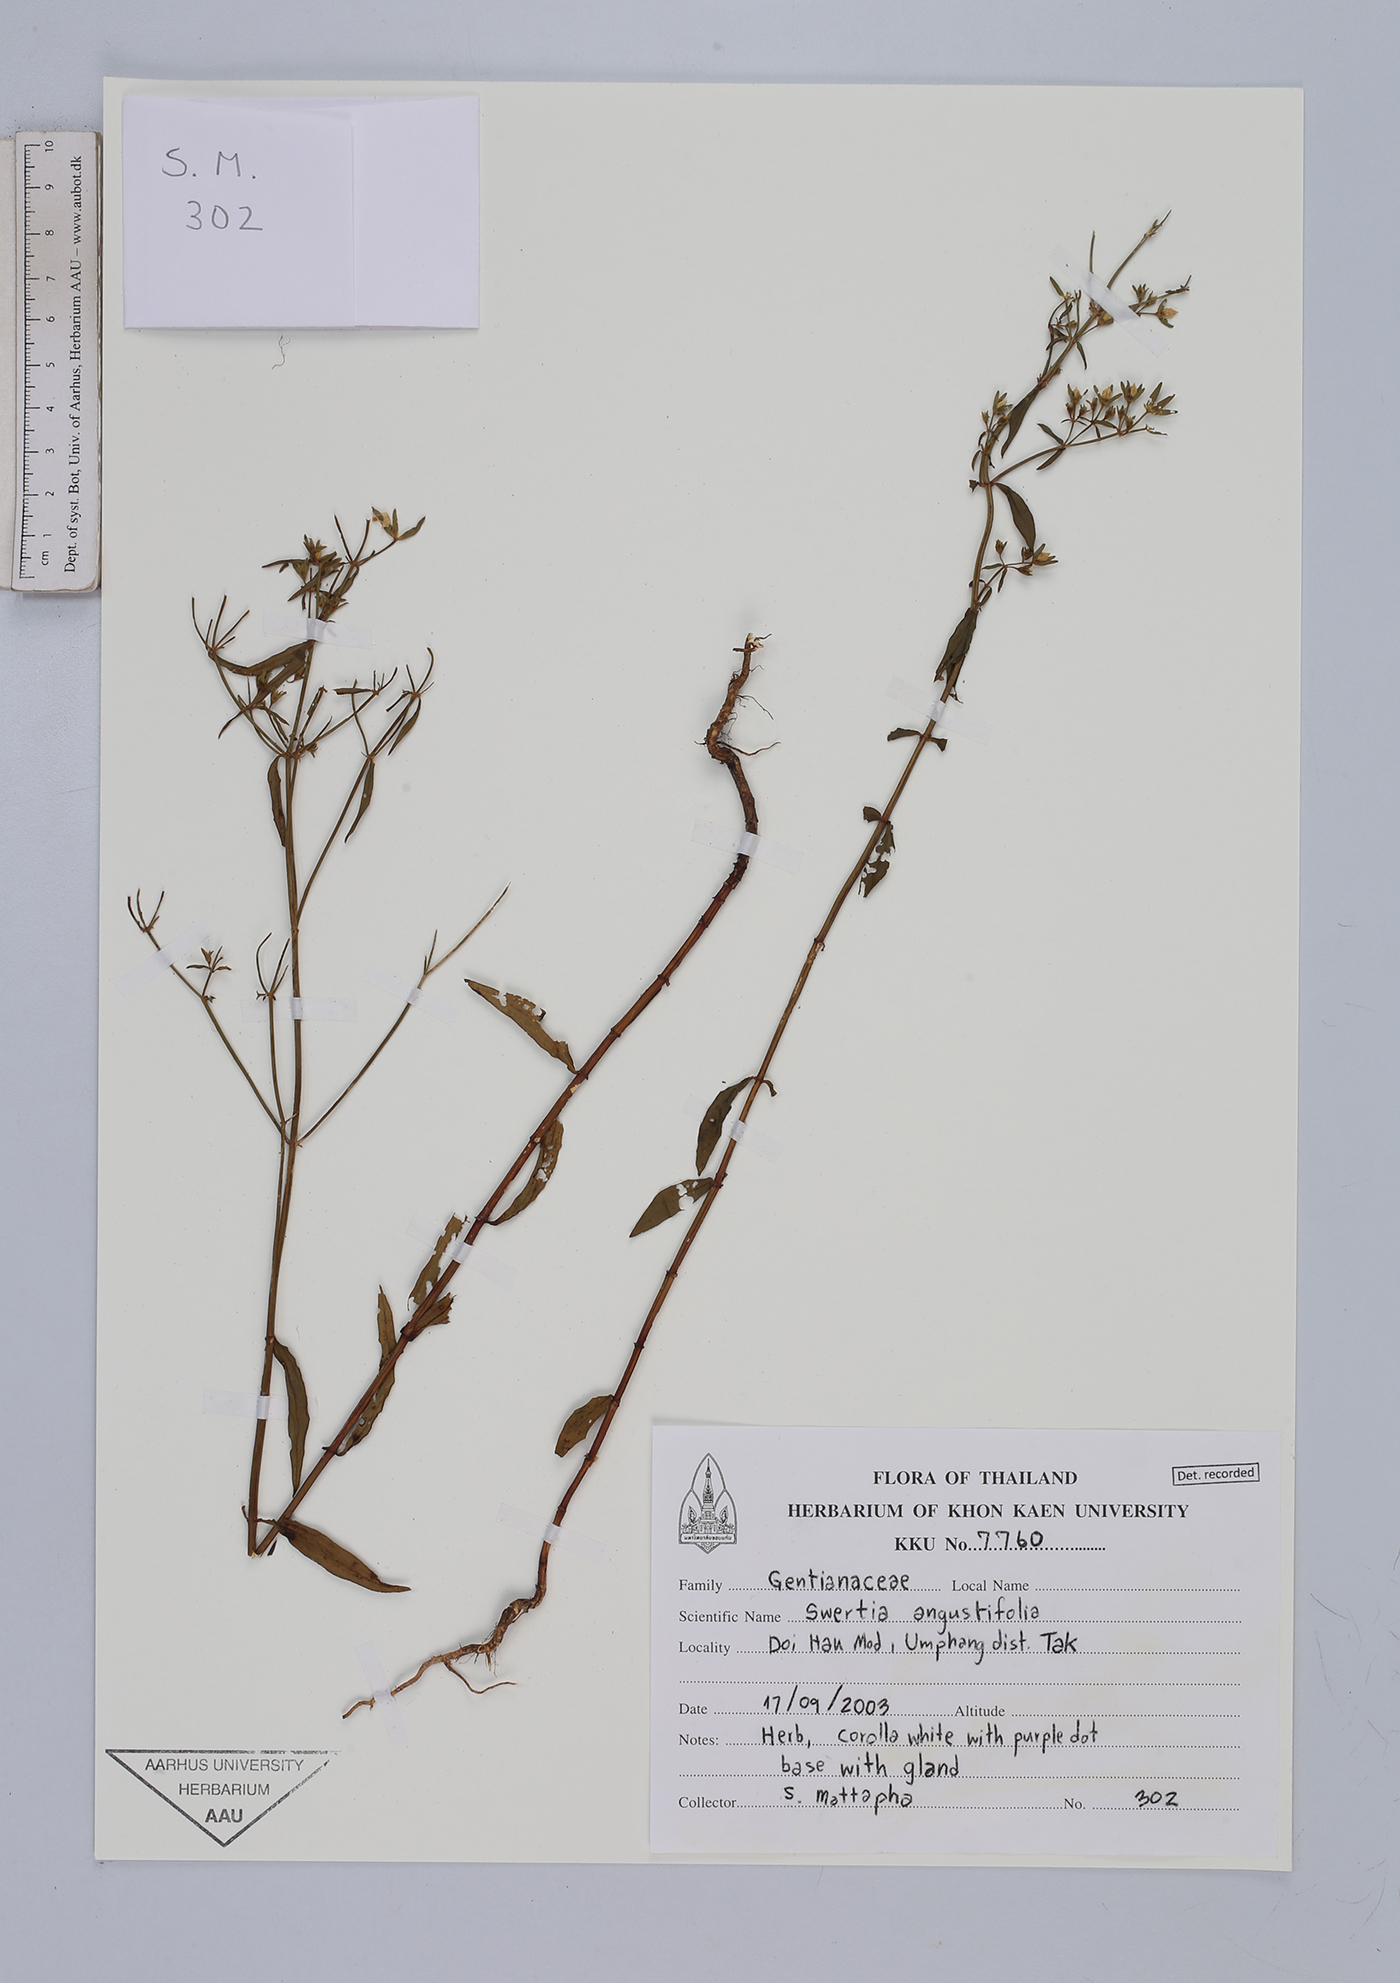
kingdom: Plantae
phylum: Tracheophyta
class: Magnoliopsida
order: Gentianales
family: Gentianaceae
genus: Swertia
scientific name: Swertia angustifolia
